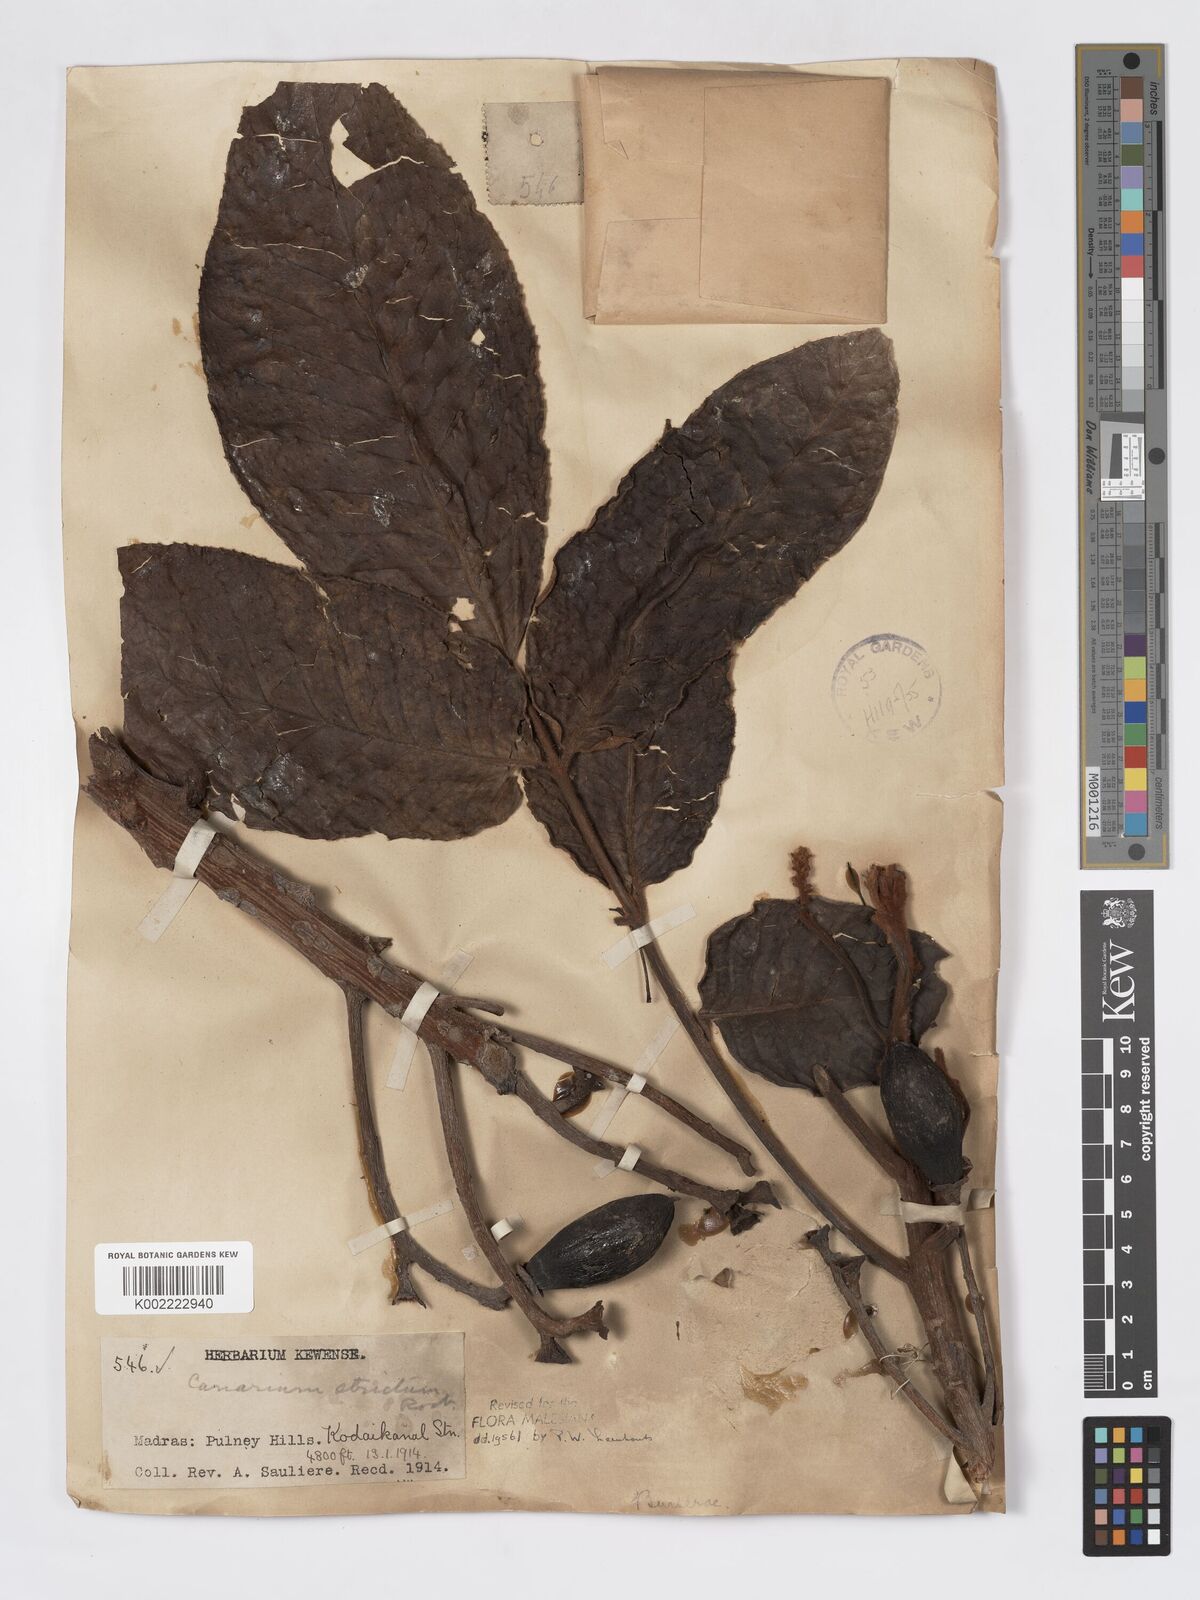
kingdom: Plantae
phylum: Tracheophyta
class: Magnoliopsida
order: Sapindales
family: Burseraceae
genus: Canarium
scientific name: Canarium strictum
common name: Indian white-mahogany
